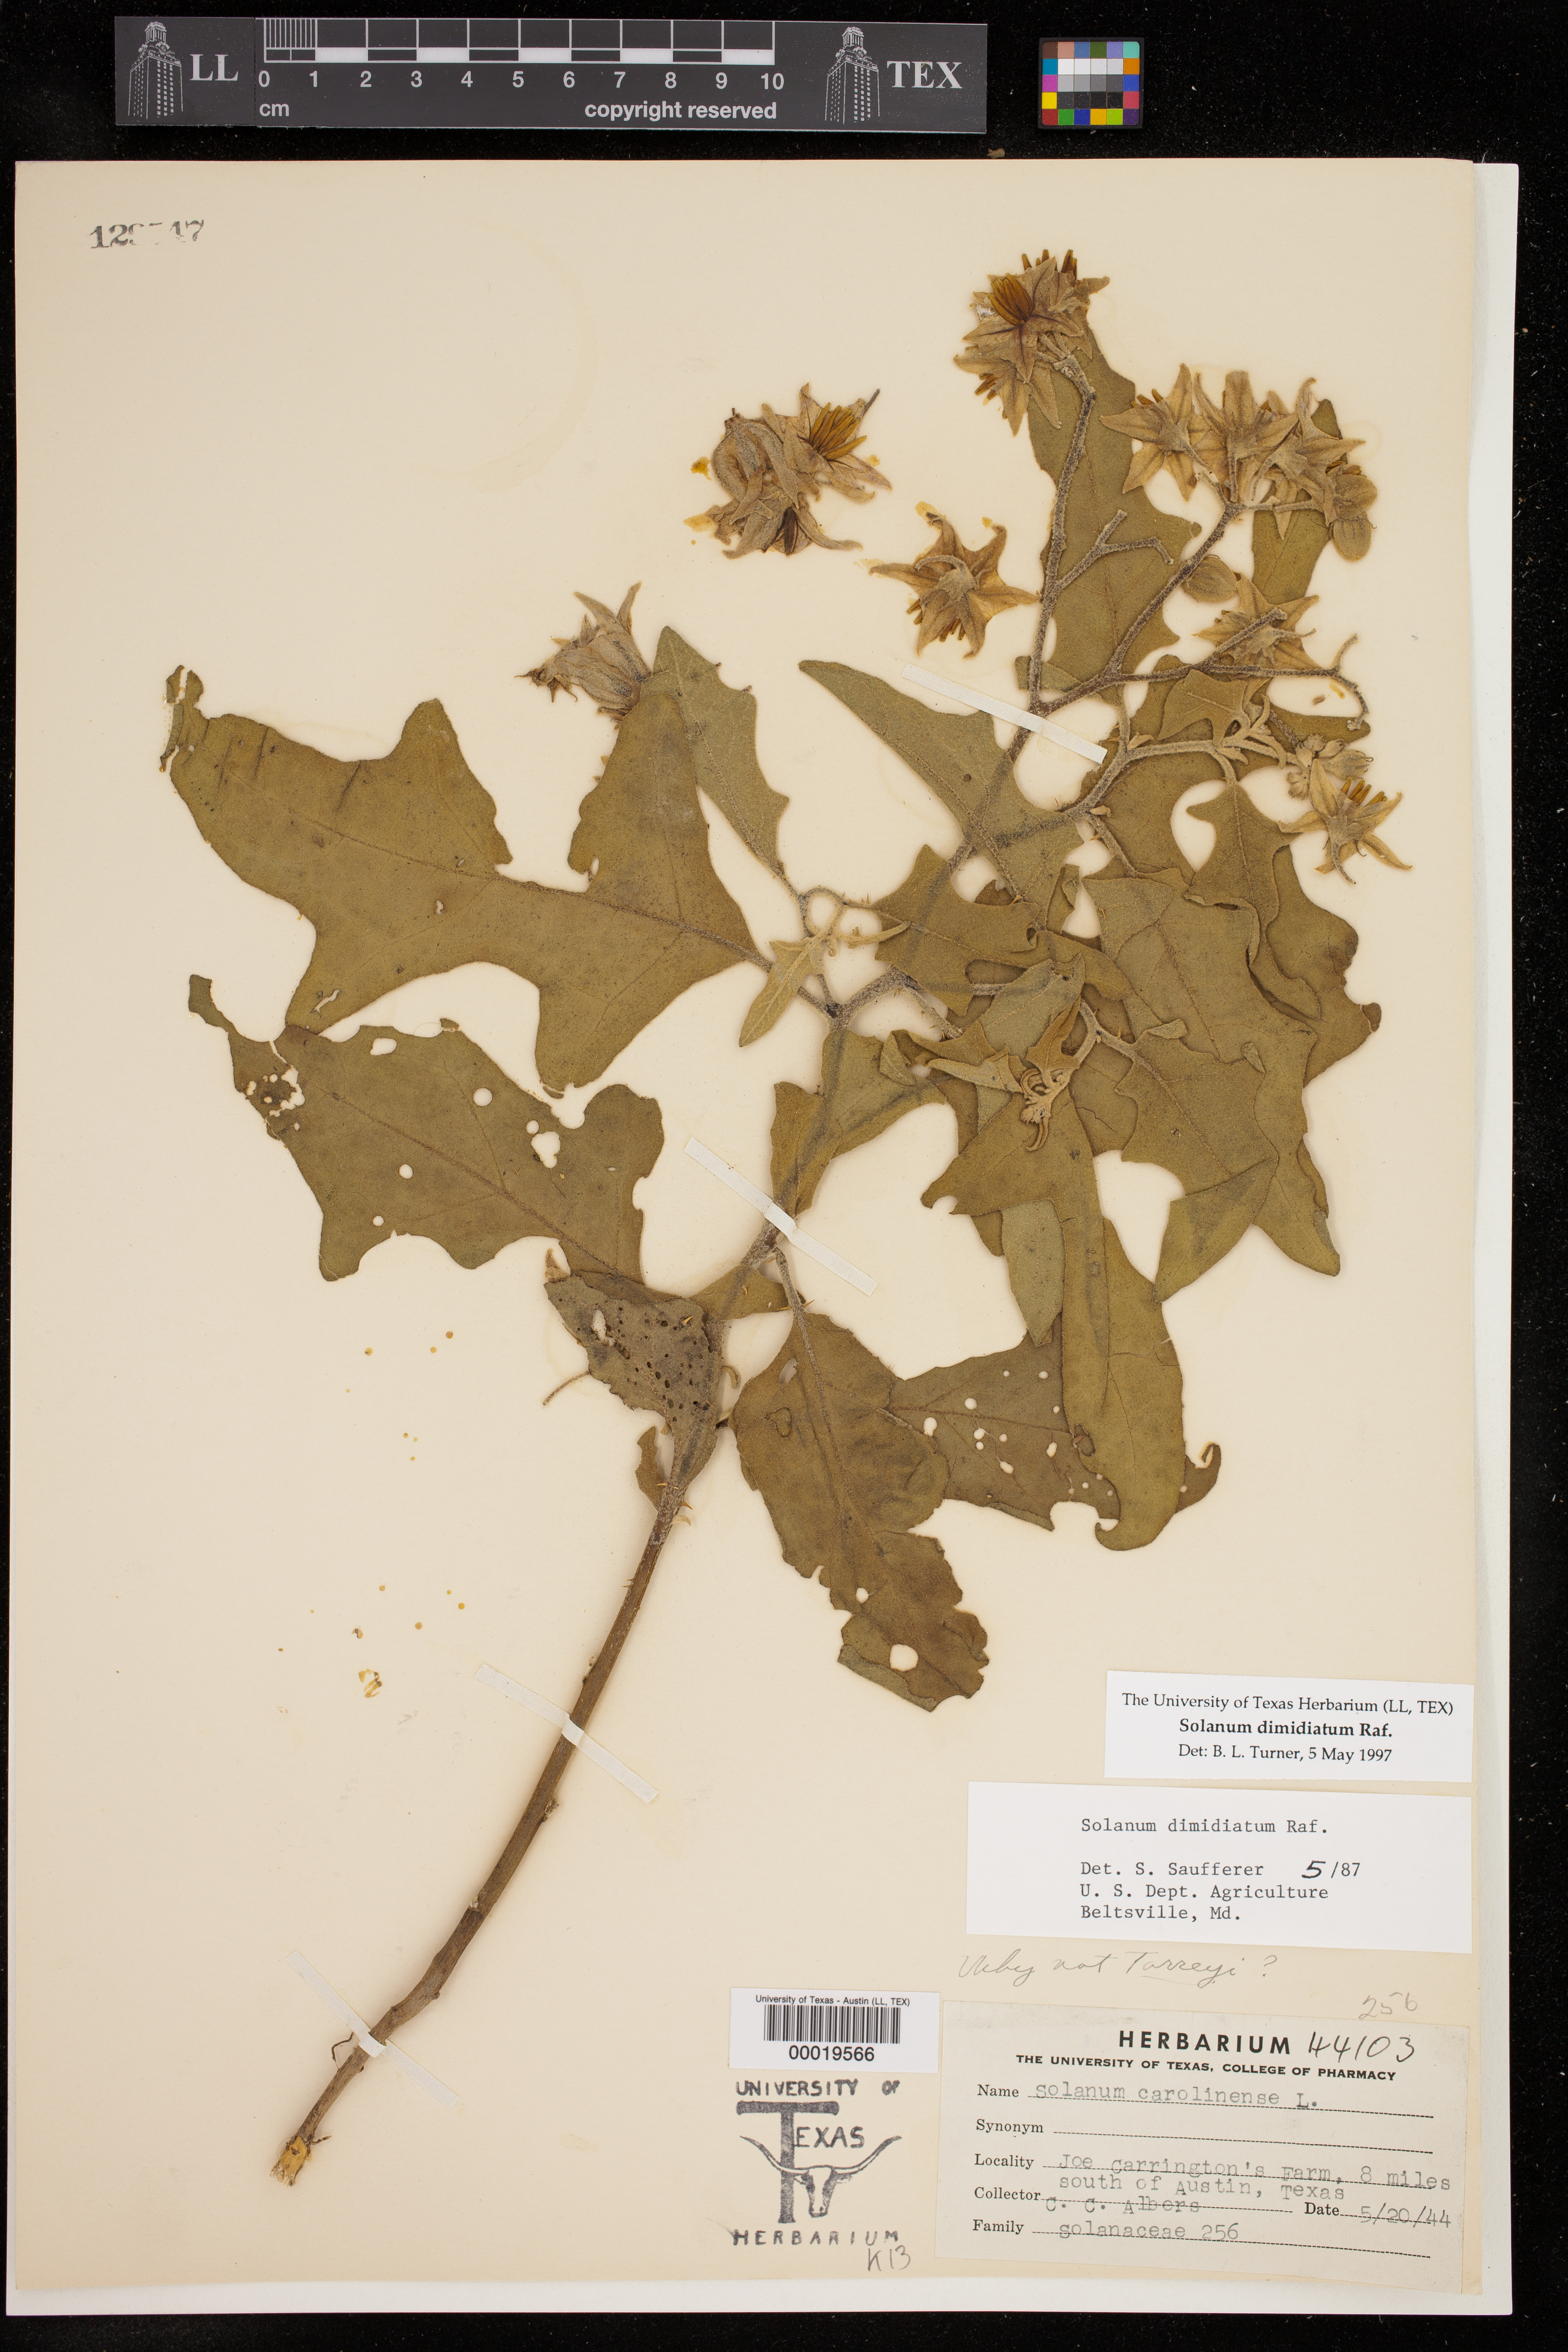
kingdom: Plantae
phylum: Tracheophyta
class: Magnoliopsida
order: Solanales
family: Solanaceae
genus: Solanum
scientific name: Solanum dimidiatum
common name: Carolina horse-nettle
